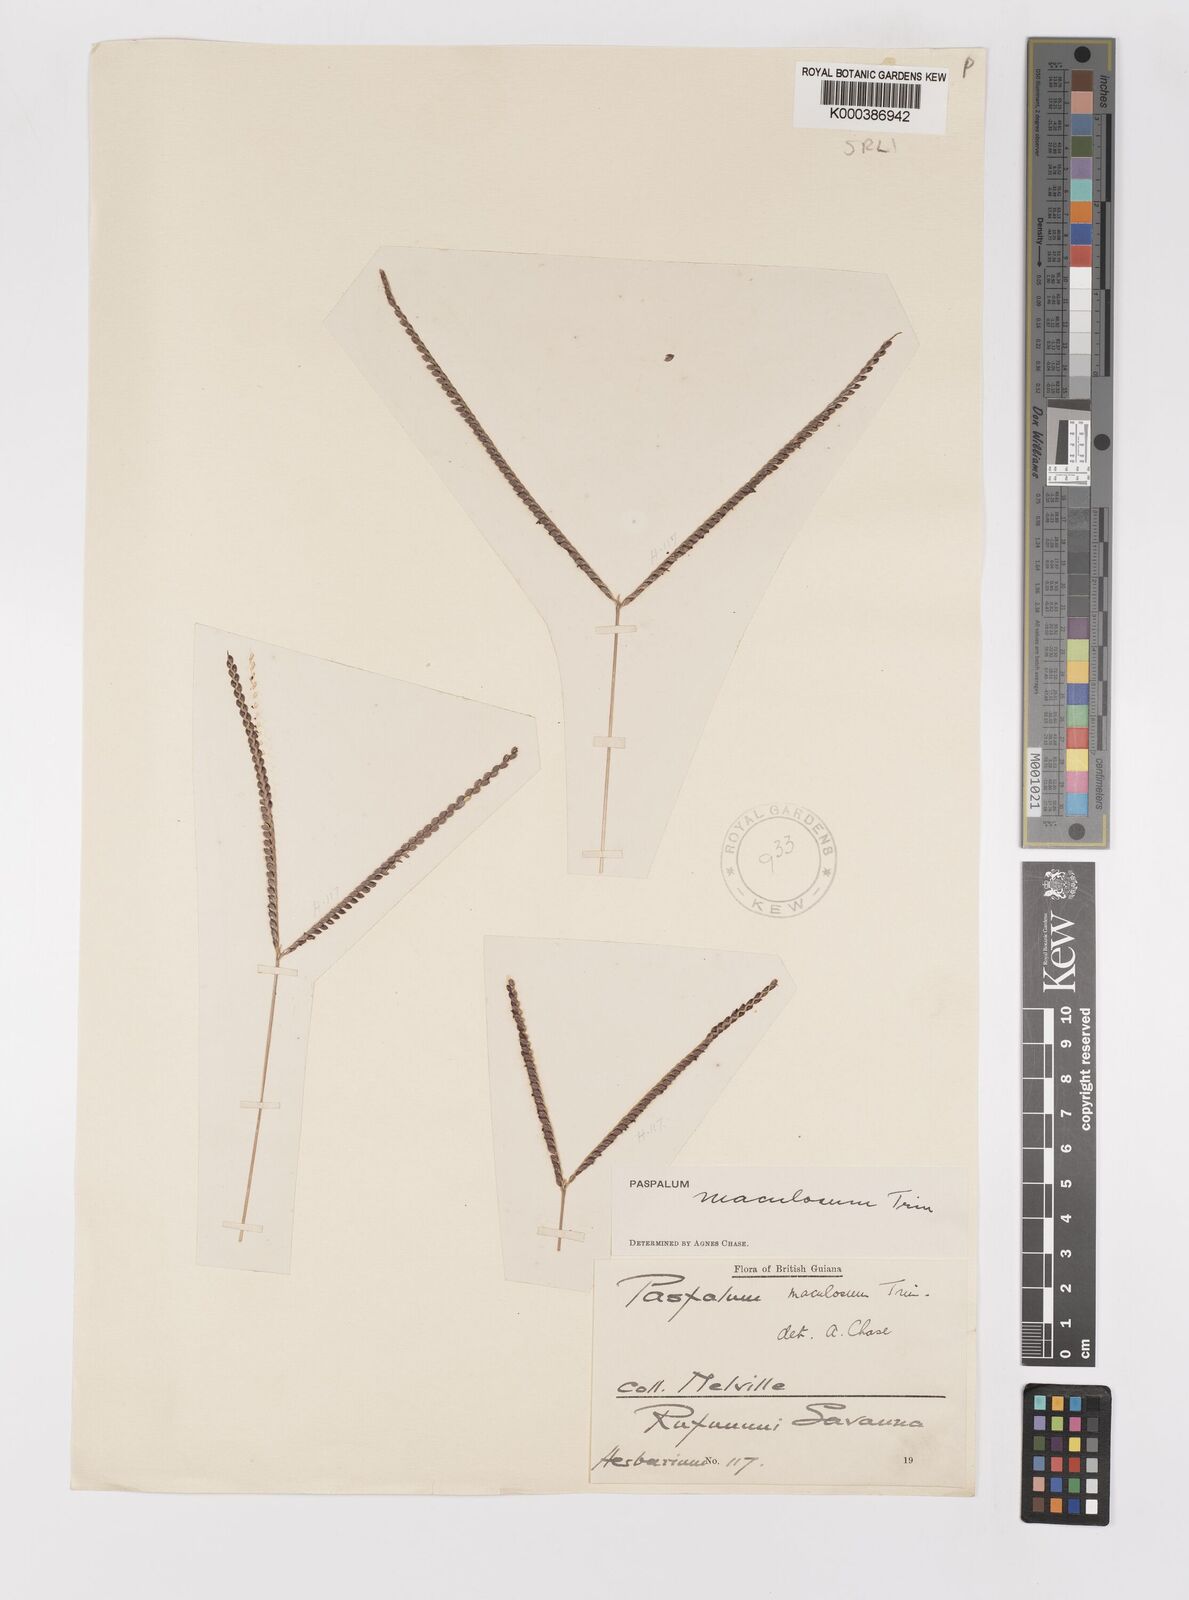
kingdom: Plantae
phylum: Tracheophyta
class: Liliopsida
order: Poales
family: Poaceae
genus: Paspalum
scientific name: Paspalum maculosum
